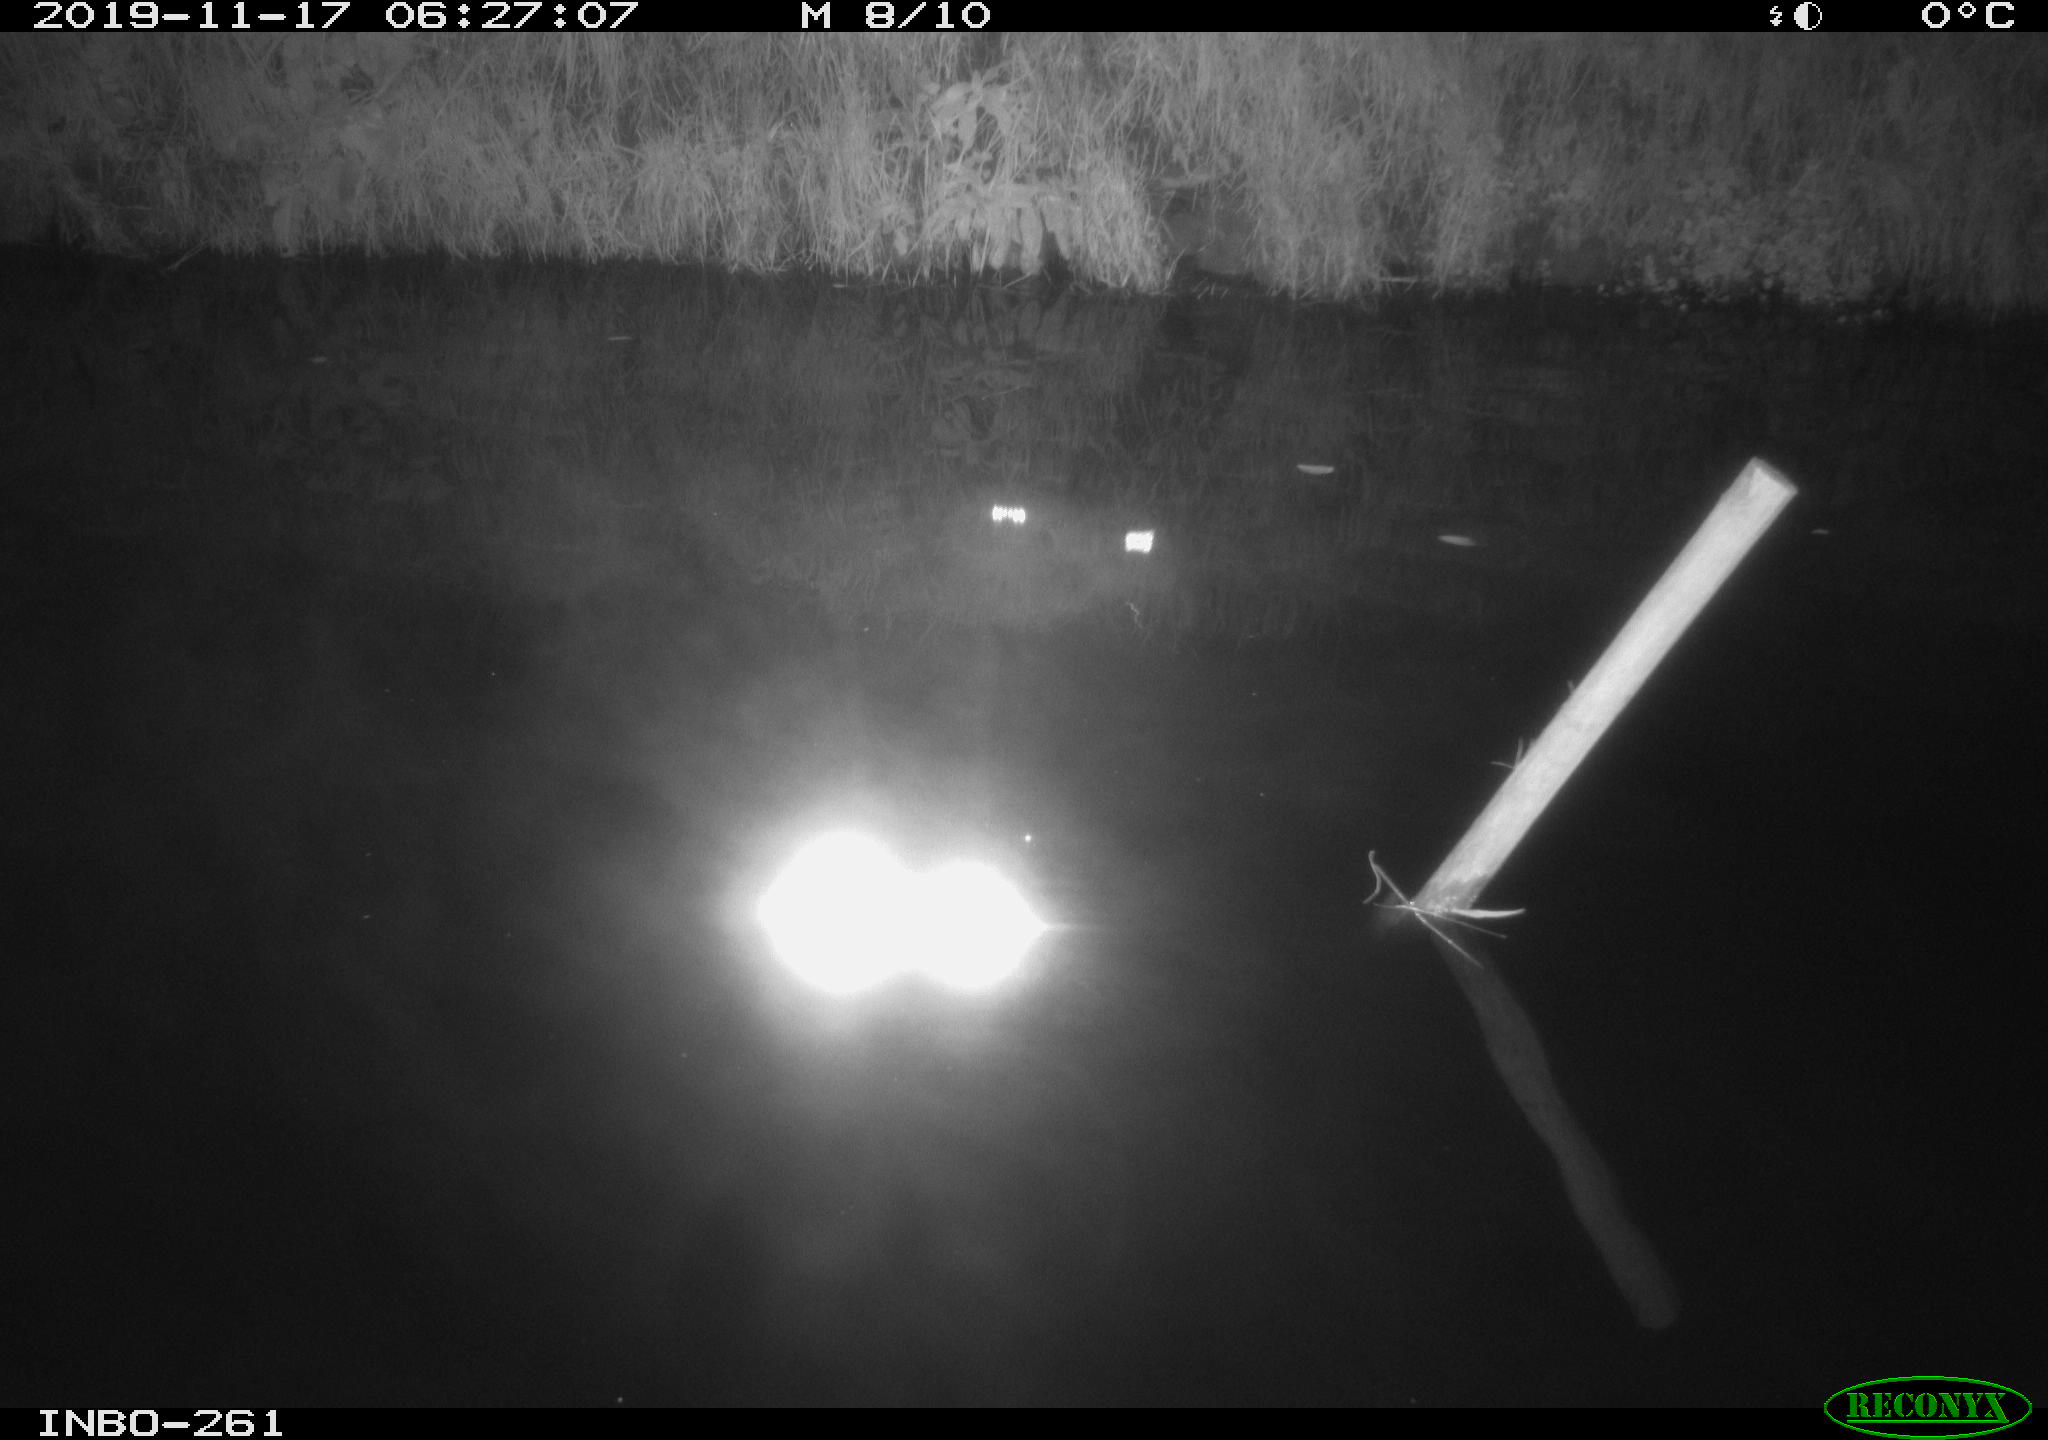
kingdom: Animalia
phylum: Chordata
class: Aves
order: Anseriformes
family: Anatidae
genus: Anas
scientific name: Anas platyrhynchos
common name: Mallard
